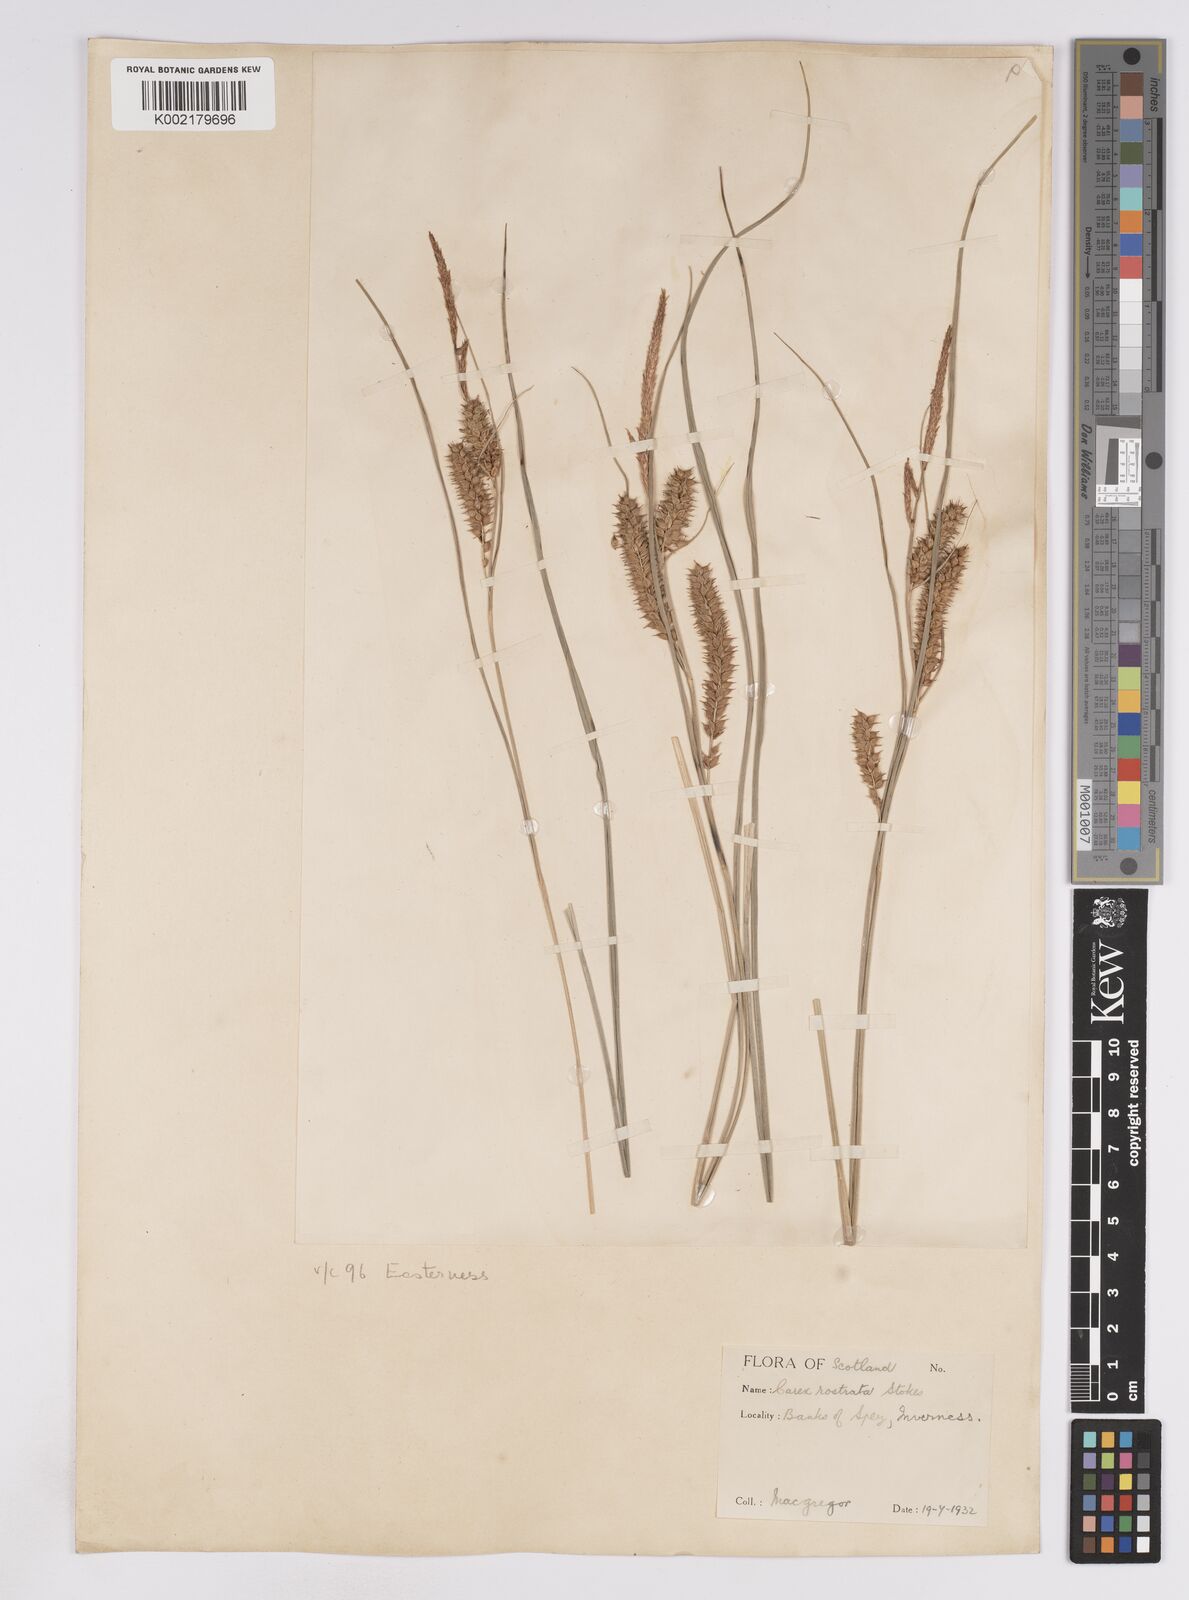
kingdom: Plantae
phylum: Tracheophyta
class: Liliopsida
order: Poales
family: Cyperaceae
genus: Carex
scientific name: Carex rostrata
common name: Bottle sedge
